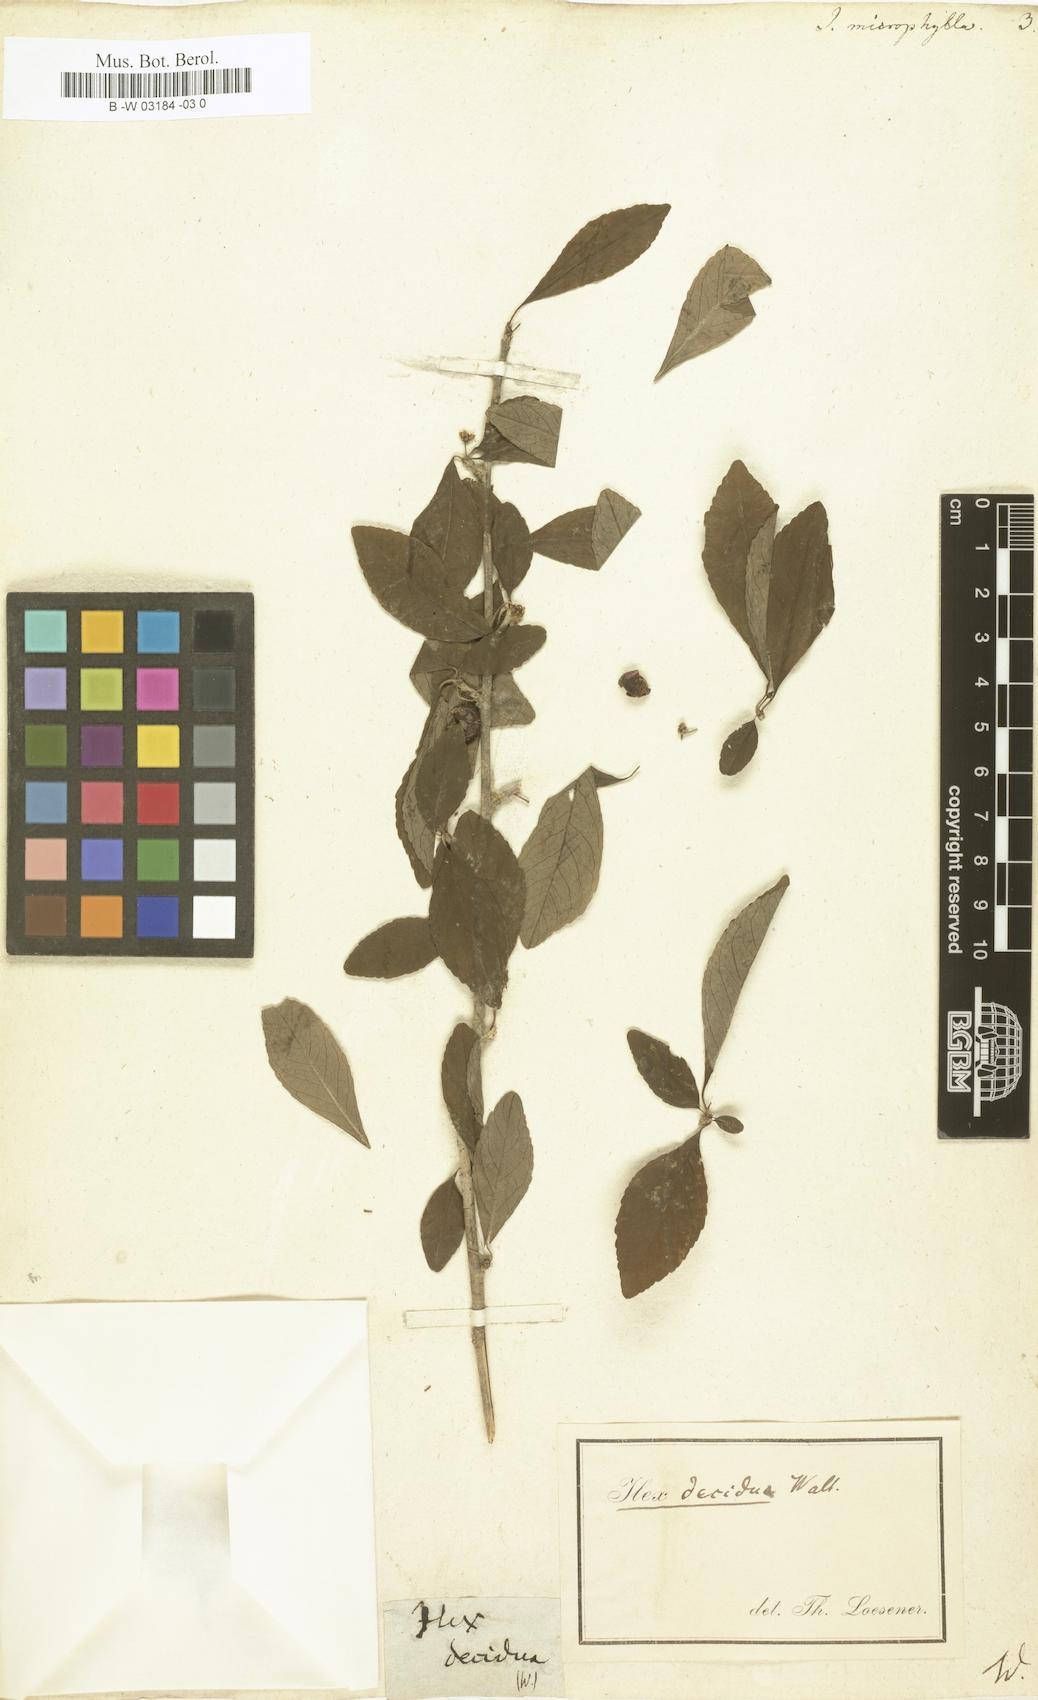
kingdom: Plantae
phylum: Tracheophyta
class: Magnoliopsida
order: Aquifoliales
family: Aquifoliaceae
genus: Ilex
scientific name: Ilex microphylla
